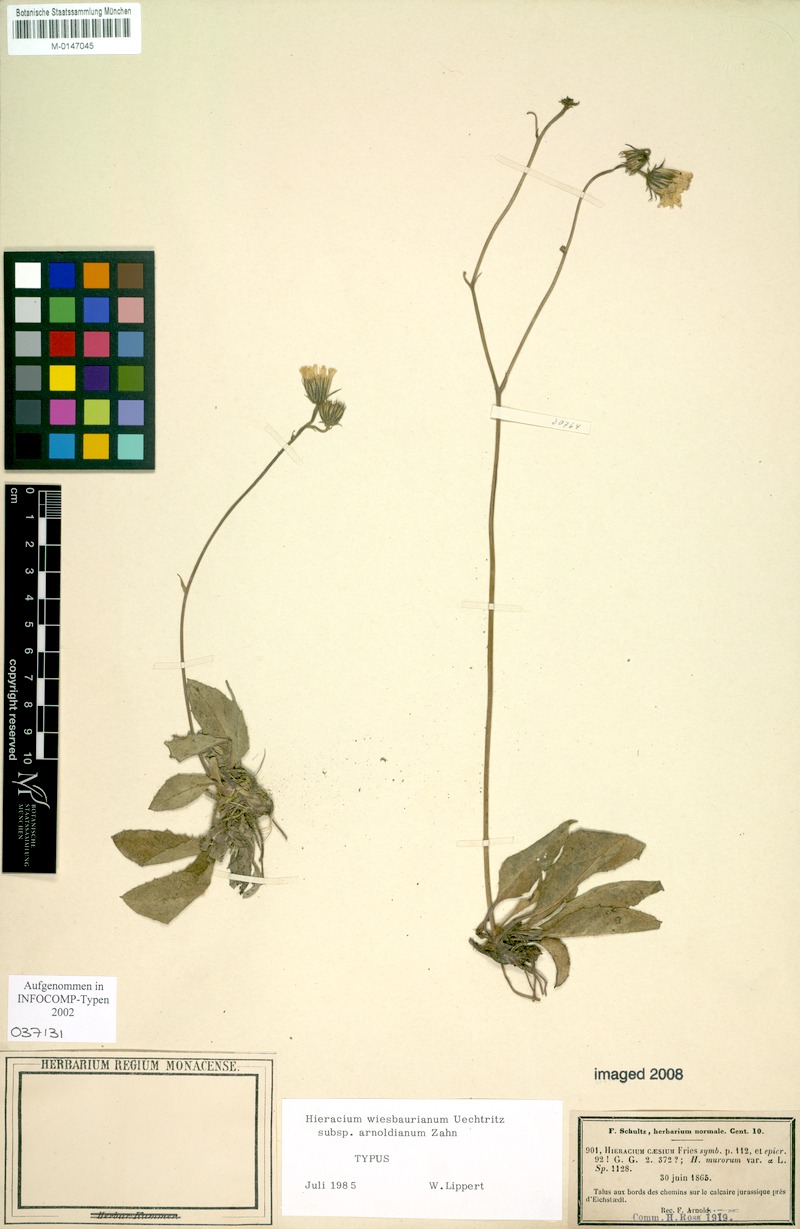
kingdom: Plantae
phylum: Tracheophyta
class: Magnoliopsida
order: Asterales
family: Asteraceae
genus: Hieracium
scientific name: Hieracium hypochoeroides
